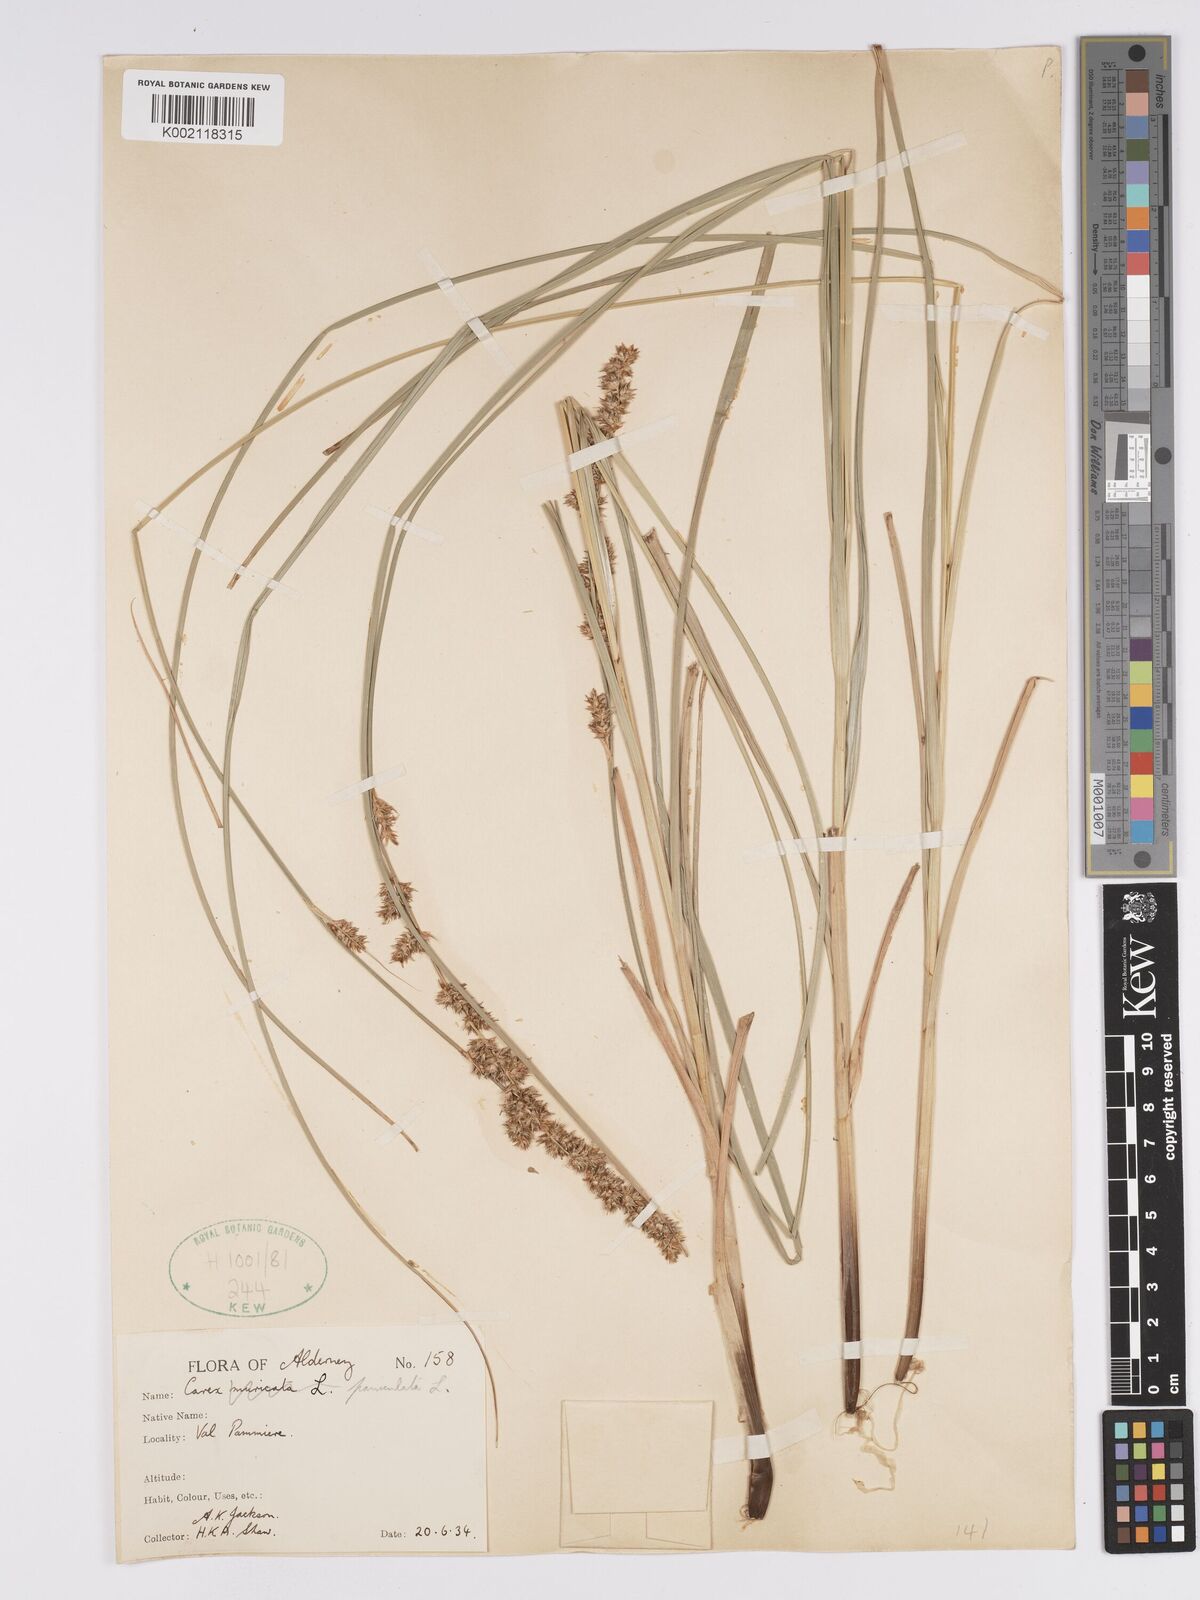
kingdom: Plantae
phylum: Tracheophyta
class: Liliopsida
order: Poales
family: Cyperaceae
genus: Carex
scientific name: Carex paniculata
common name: Greater tussock-sedge
